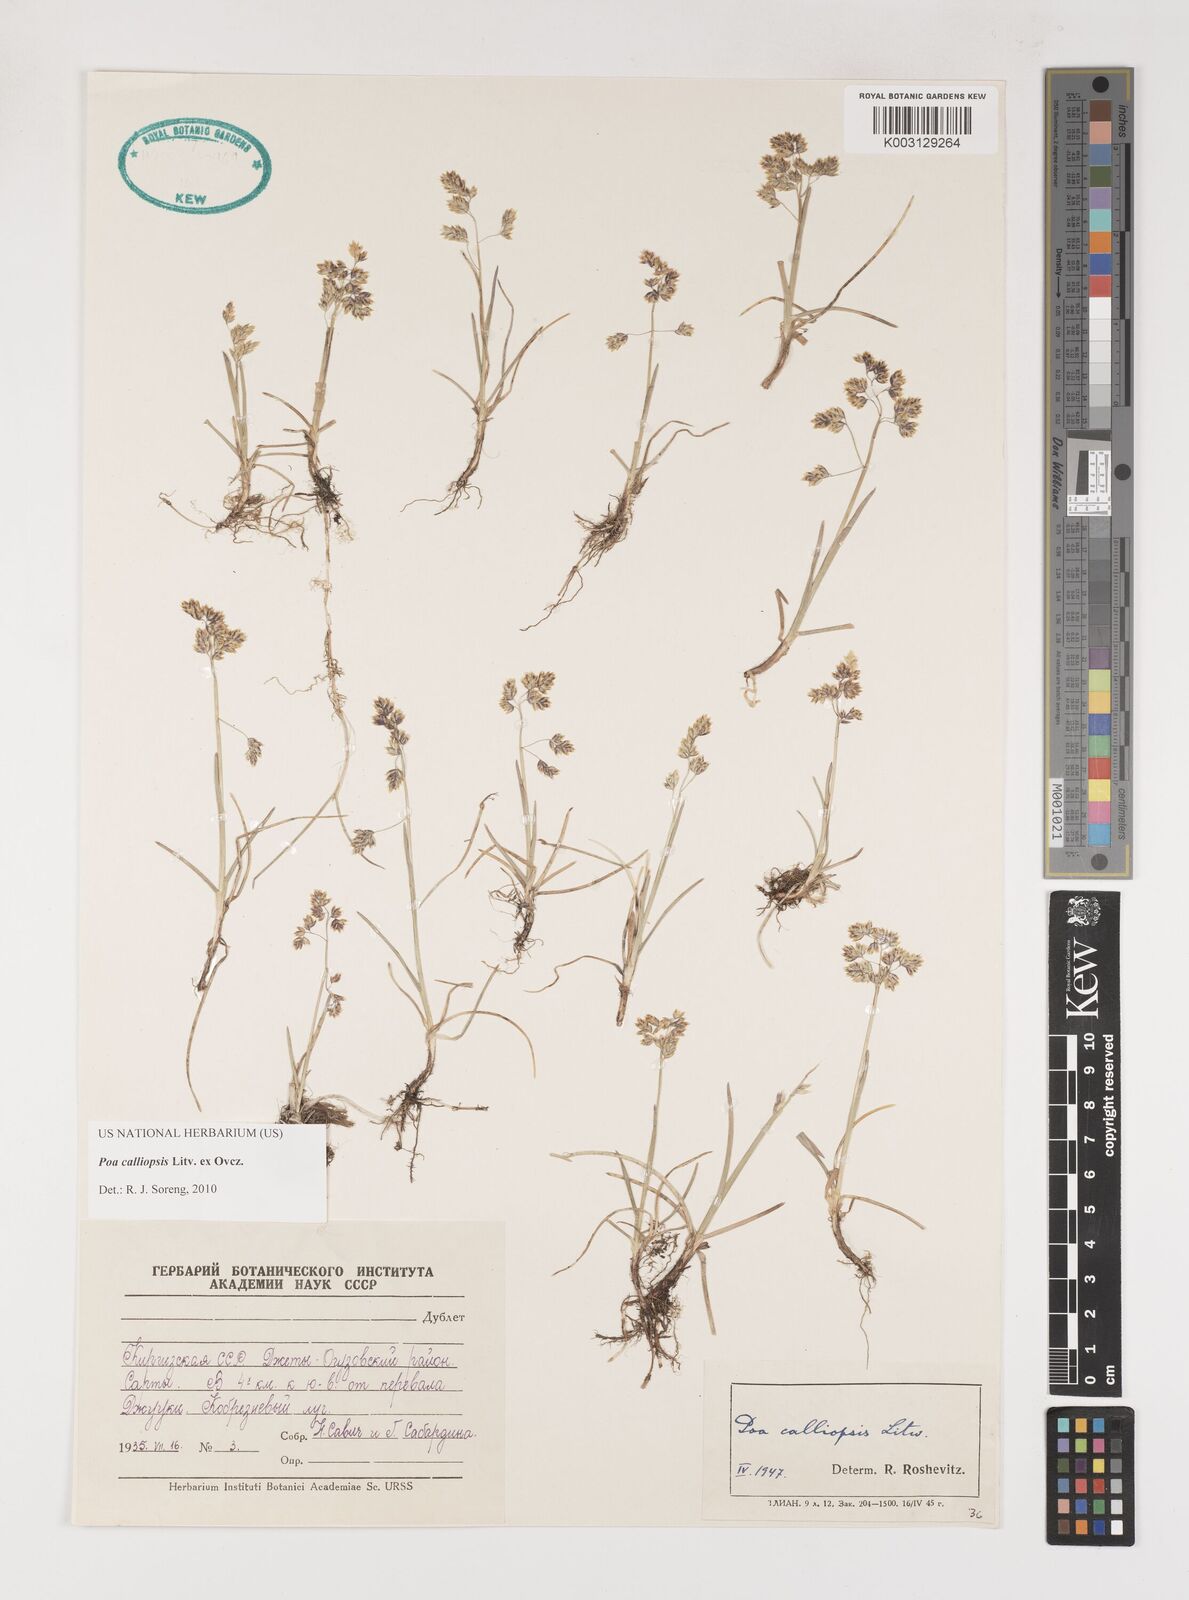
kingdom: Plantae
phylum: Tracheophyta
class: Liliopsida
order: Poales
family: Poaceae
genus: Poa
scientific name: Poa calliopsis
